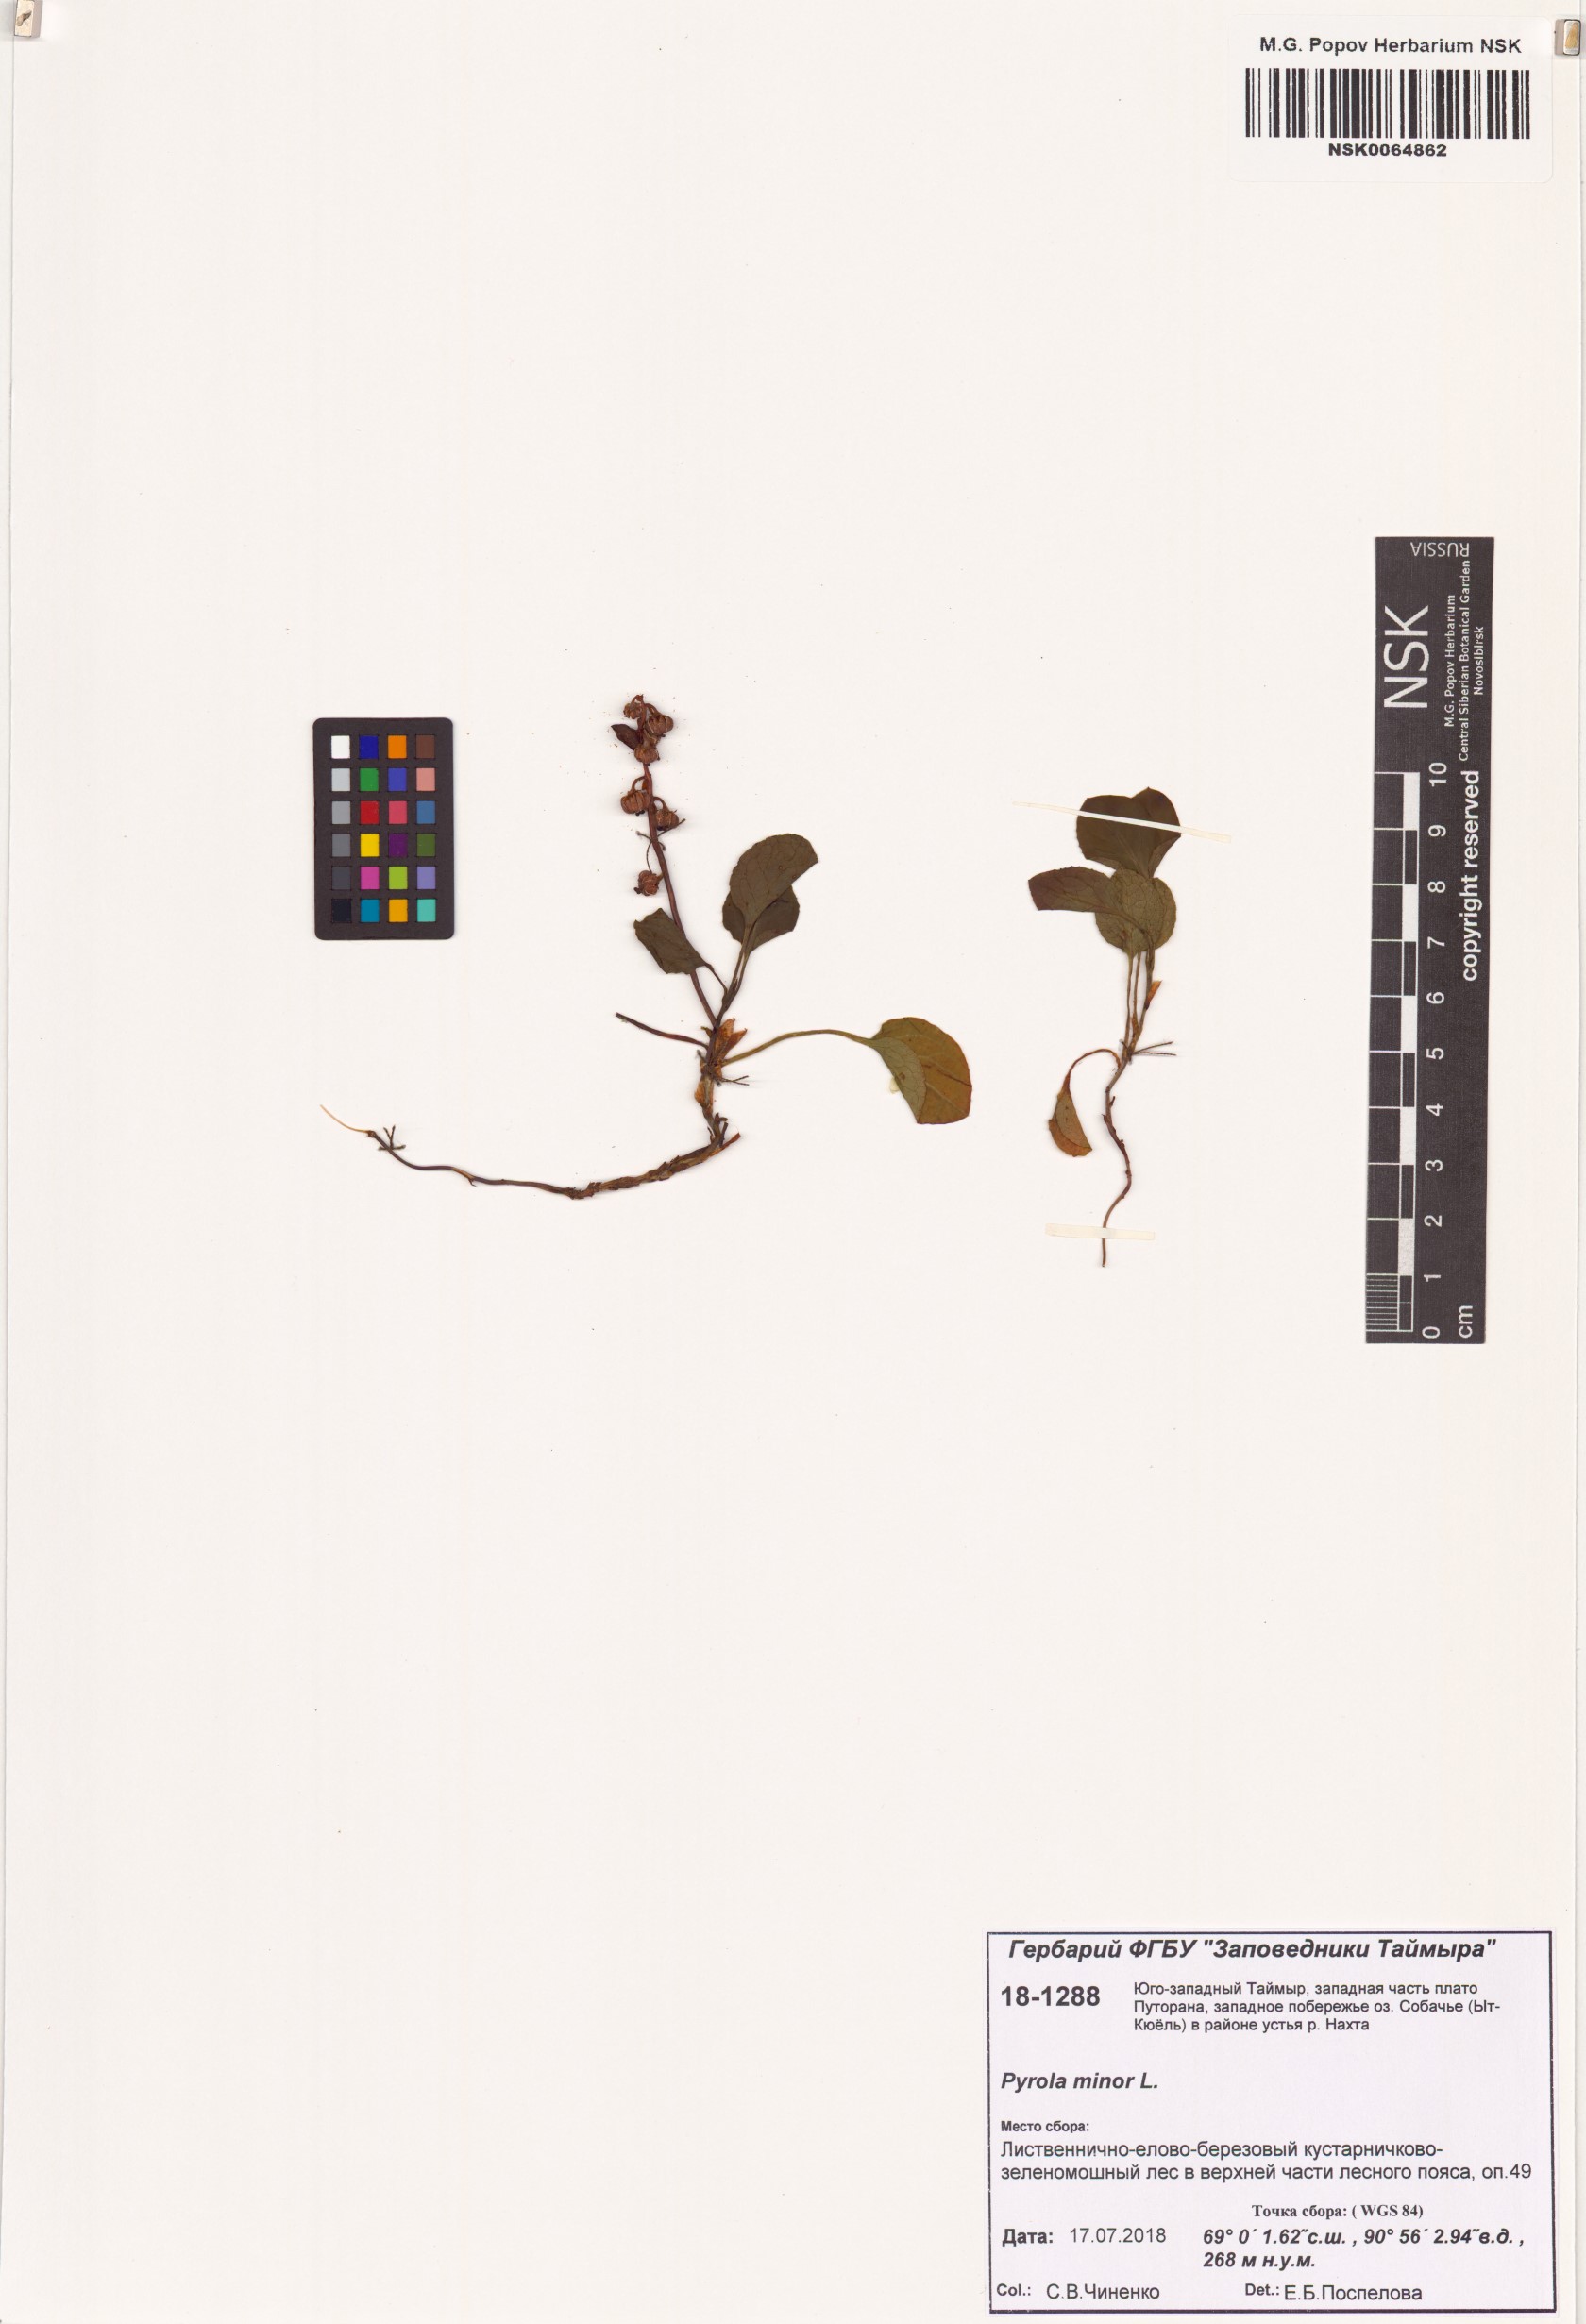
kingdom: Plantae
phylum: Tracheophyta
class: Magnoliopsida
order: Ericales
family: Ericaceae
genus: Pyrola
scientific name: Pyrola minor
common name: Common wintergreen
